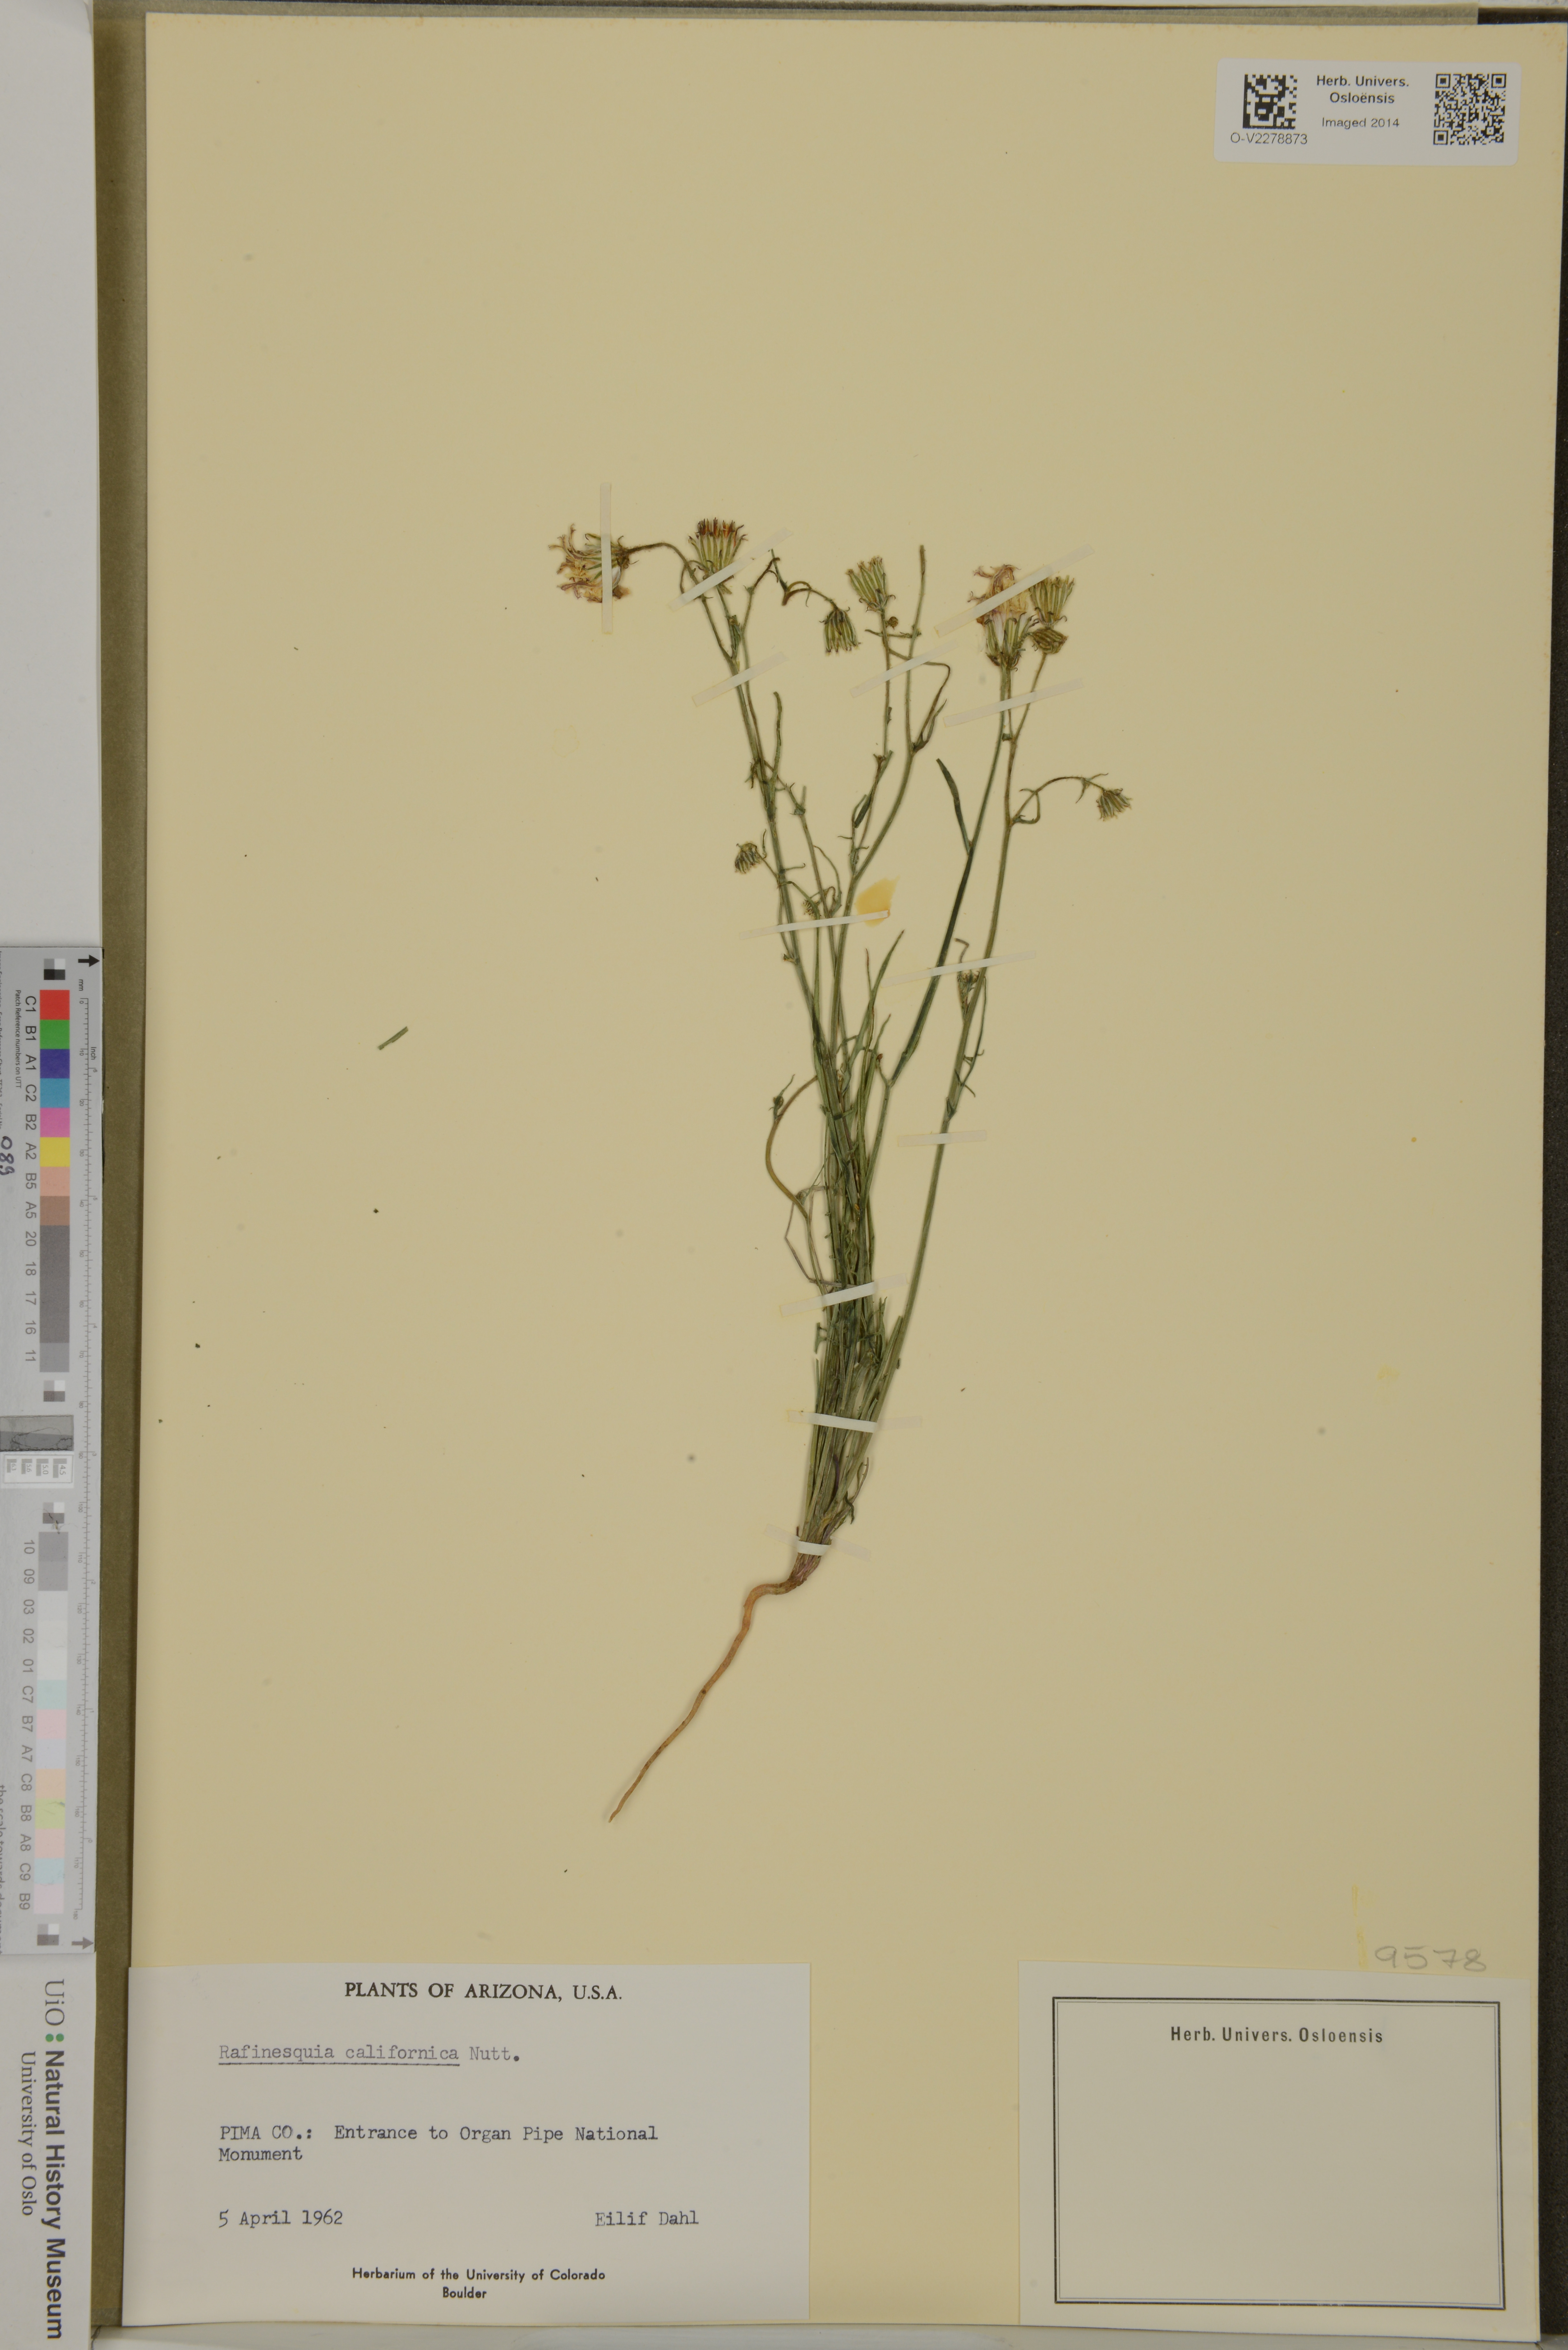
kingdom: Plantae
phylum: Tracheophyta
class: Magnoliopsida
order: Asterales
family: Asteraceae
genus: Rafinesquia
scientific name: Rafinesquia californica
